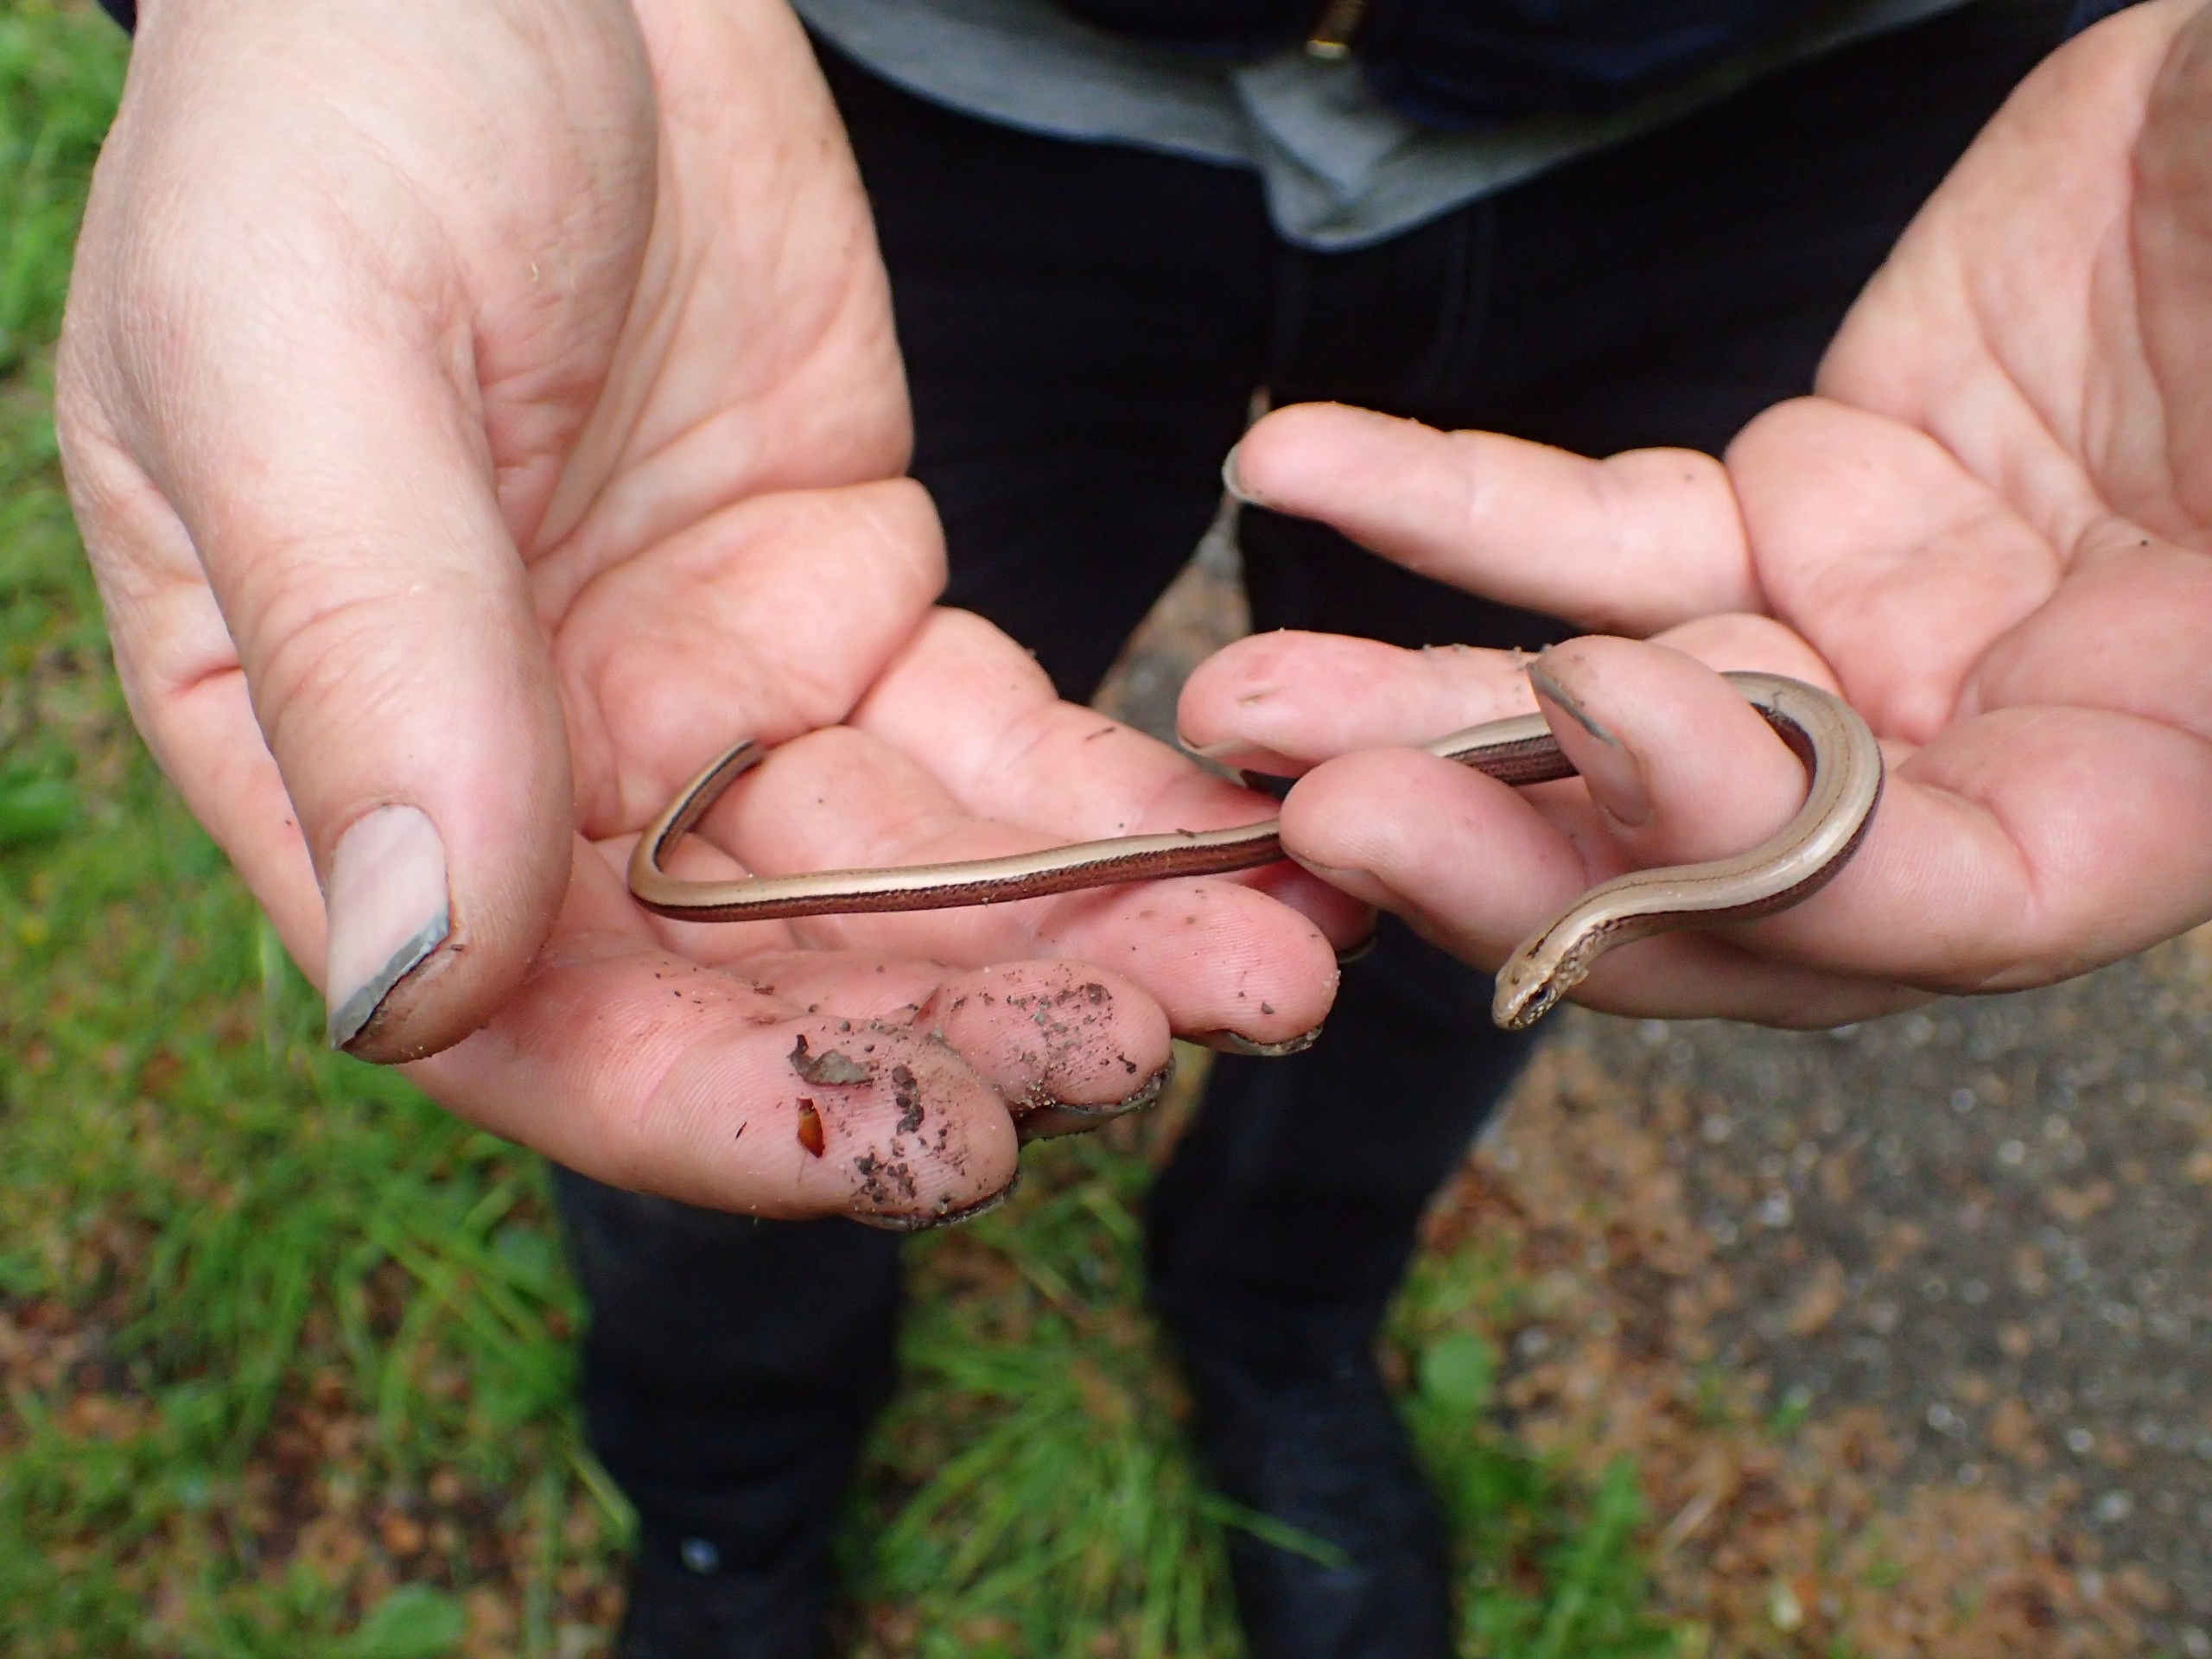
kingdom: Animalia
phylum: Chordata
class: Squamata
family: Anguidae
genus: Anguis
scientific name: Anguis fragilis
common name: Stålorm
